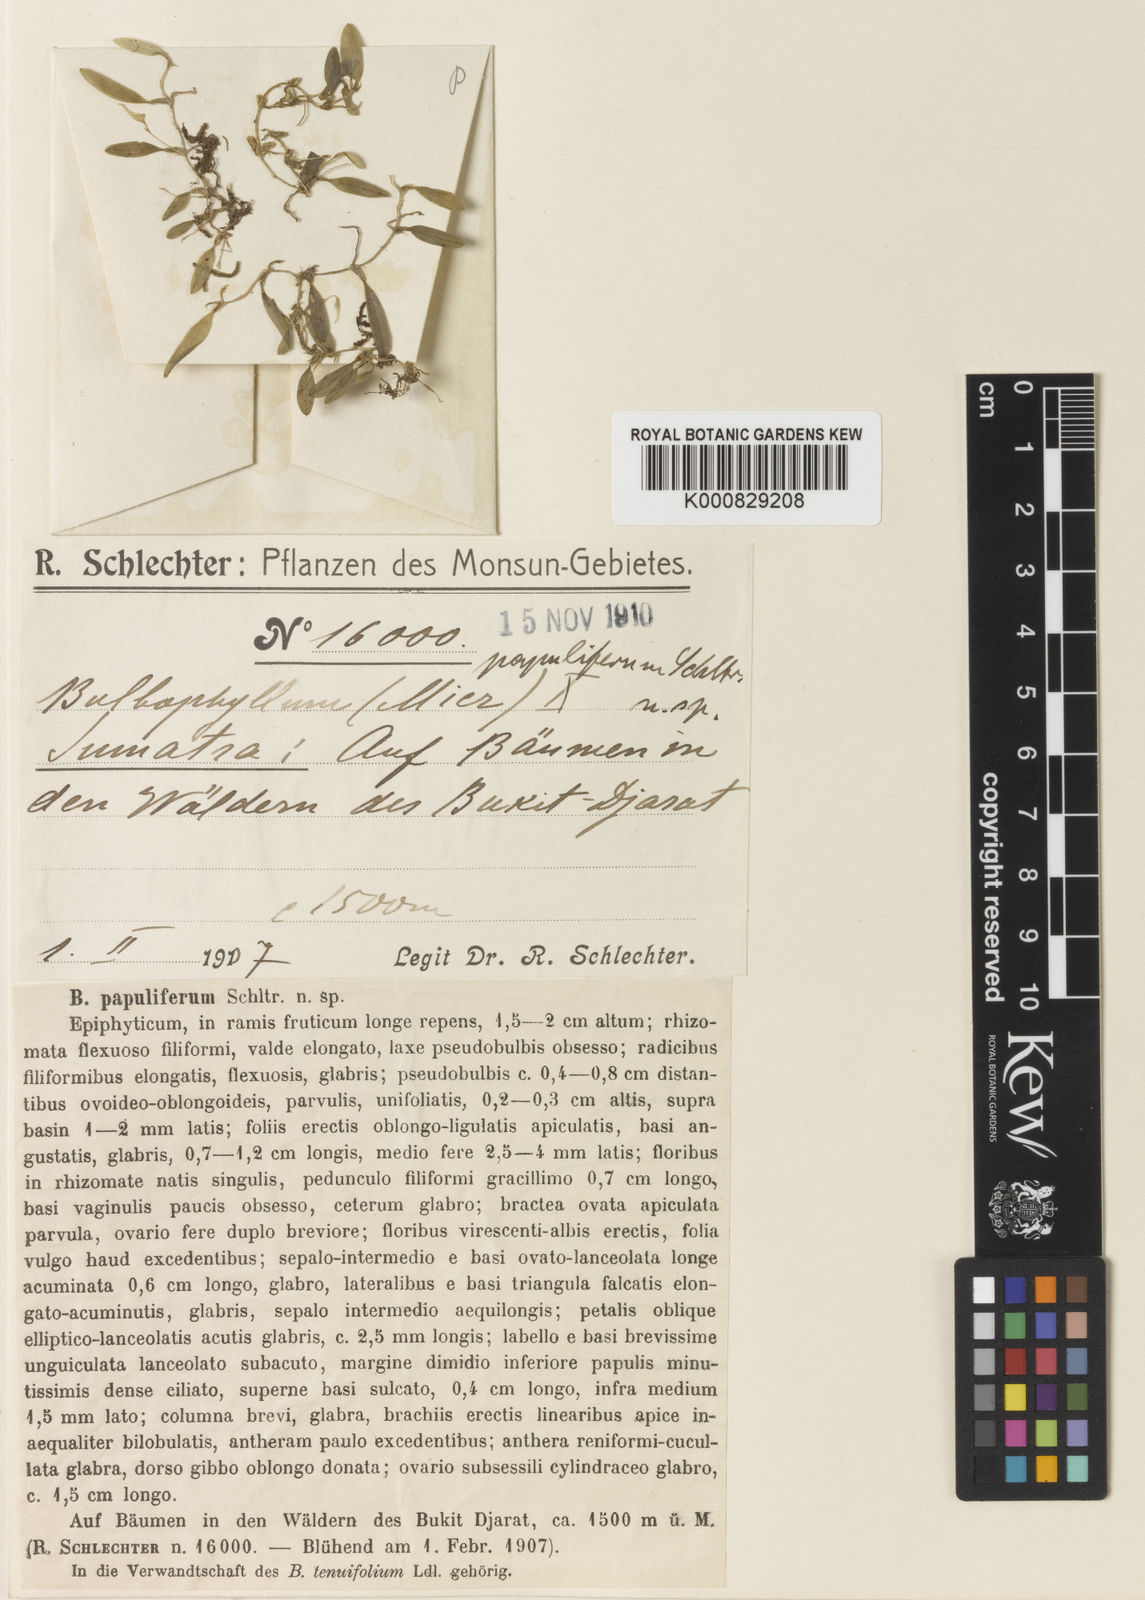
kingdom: Plantae
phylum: Tracheophyta
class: Liliopsida
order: Asparagales
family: Orchidaceae
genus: Bulbophyllum
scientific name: Bulbophyllum papuliferum
